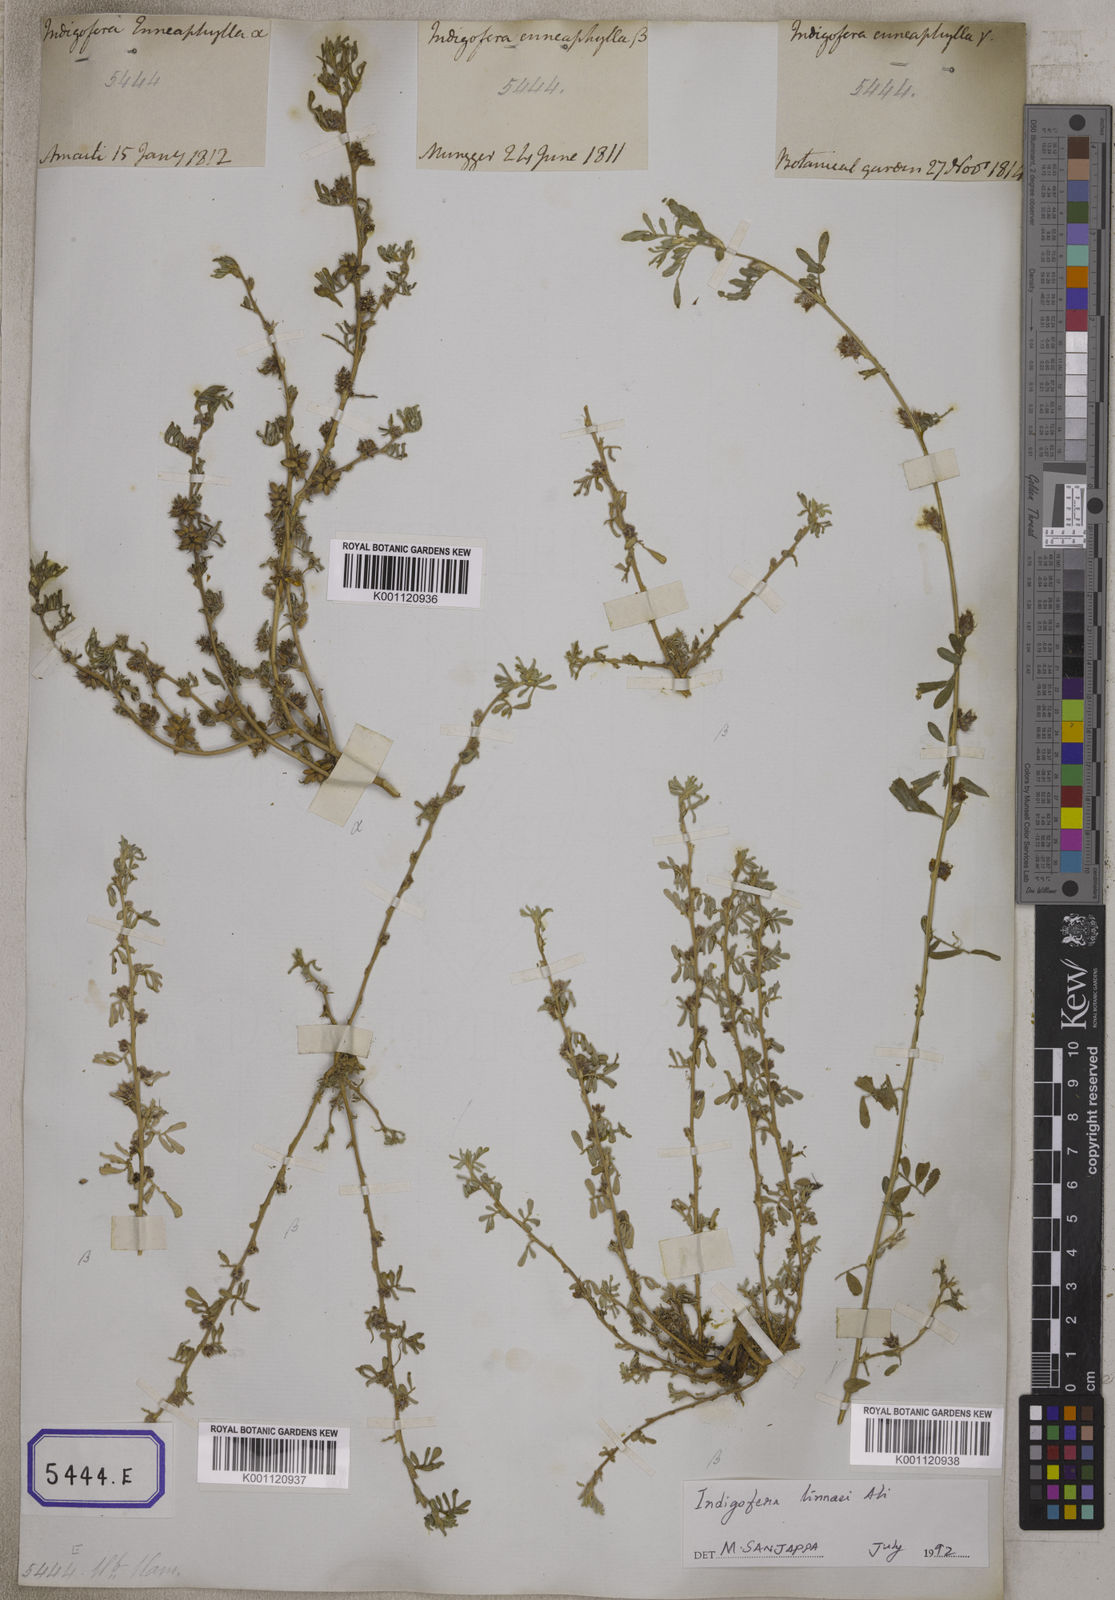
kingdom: Plantae
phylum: Tracheophyta
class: Magnoliopsida
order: Fabales
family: Fabaceae
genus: Indigofera
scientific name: Indigofera linnaei
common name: Nine-leaf indigo
